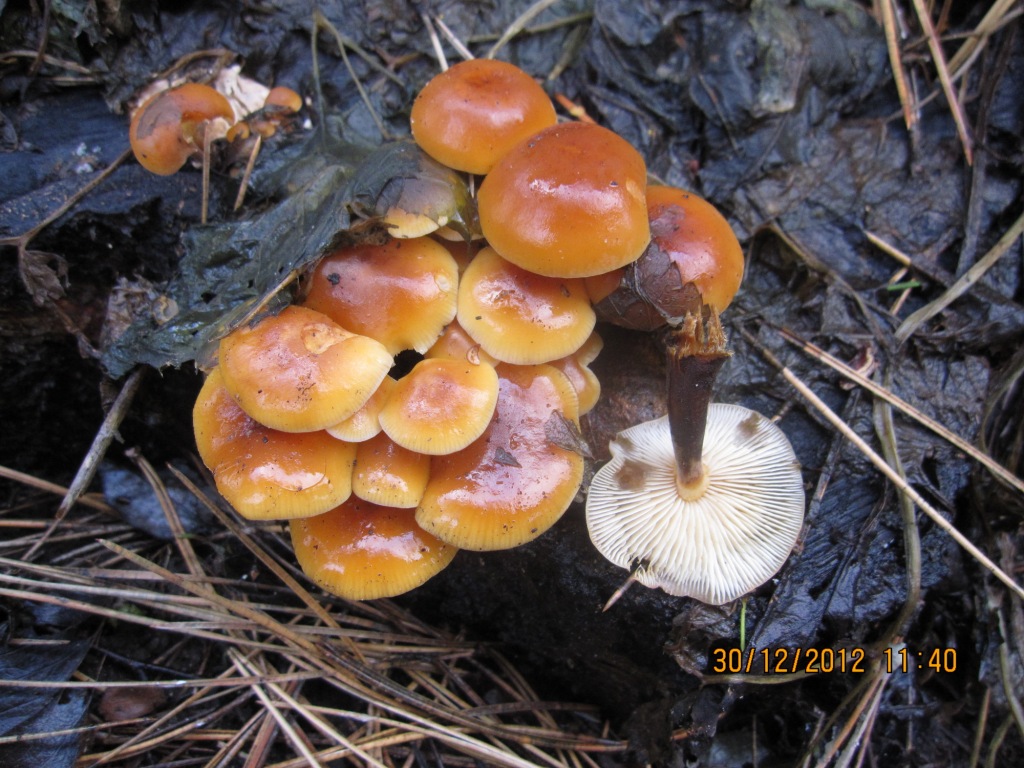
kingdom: Fungi
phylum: Basidiomycota
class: Agaricomycetes
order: Agaricales
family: Physalacriaceae
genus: Flammulina
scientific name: Flammulina velutipes
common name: gul fløjlsfod
